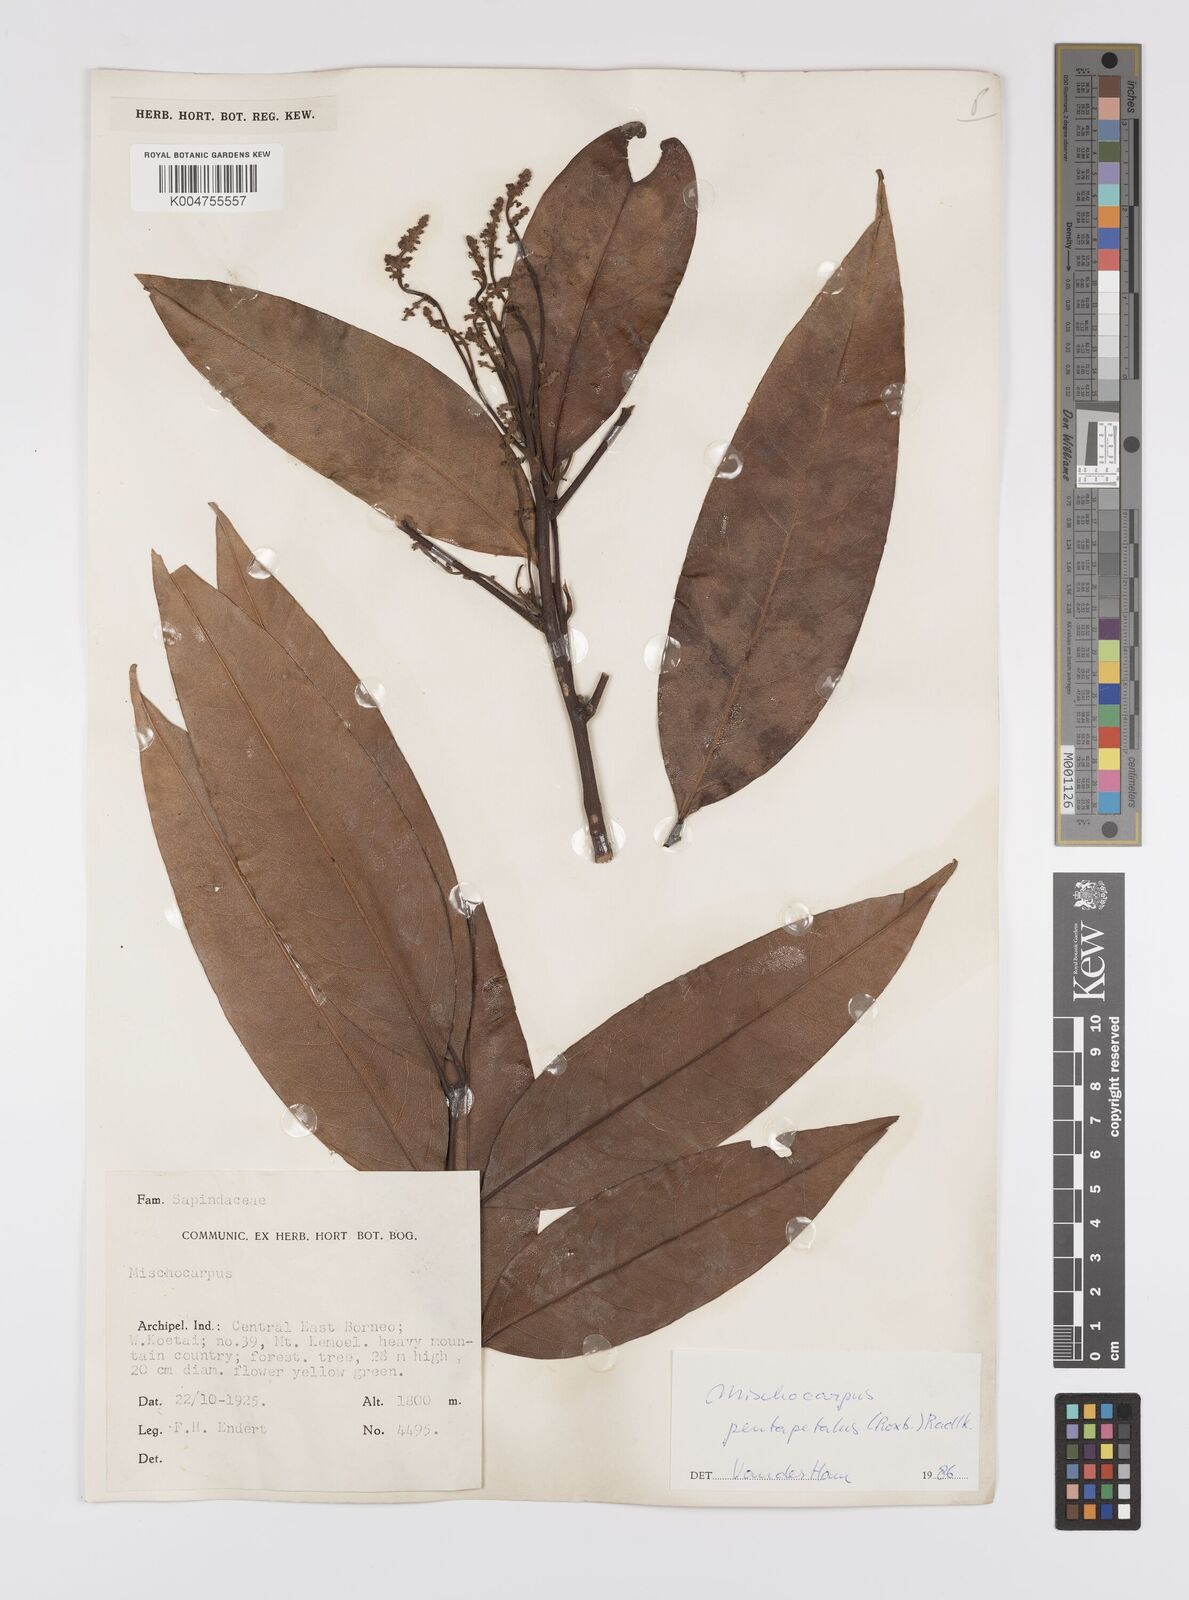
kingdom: Plantae
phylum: Tracheophyta
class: Magnoliopsida
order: Sapindales
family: Sapindaceae
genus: Mischocarpus
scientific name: Mischocarpus pentapetalus
